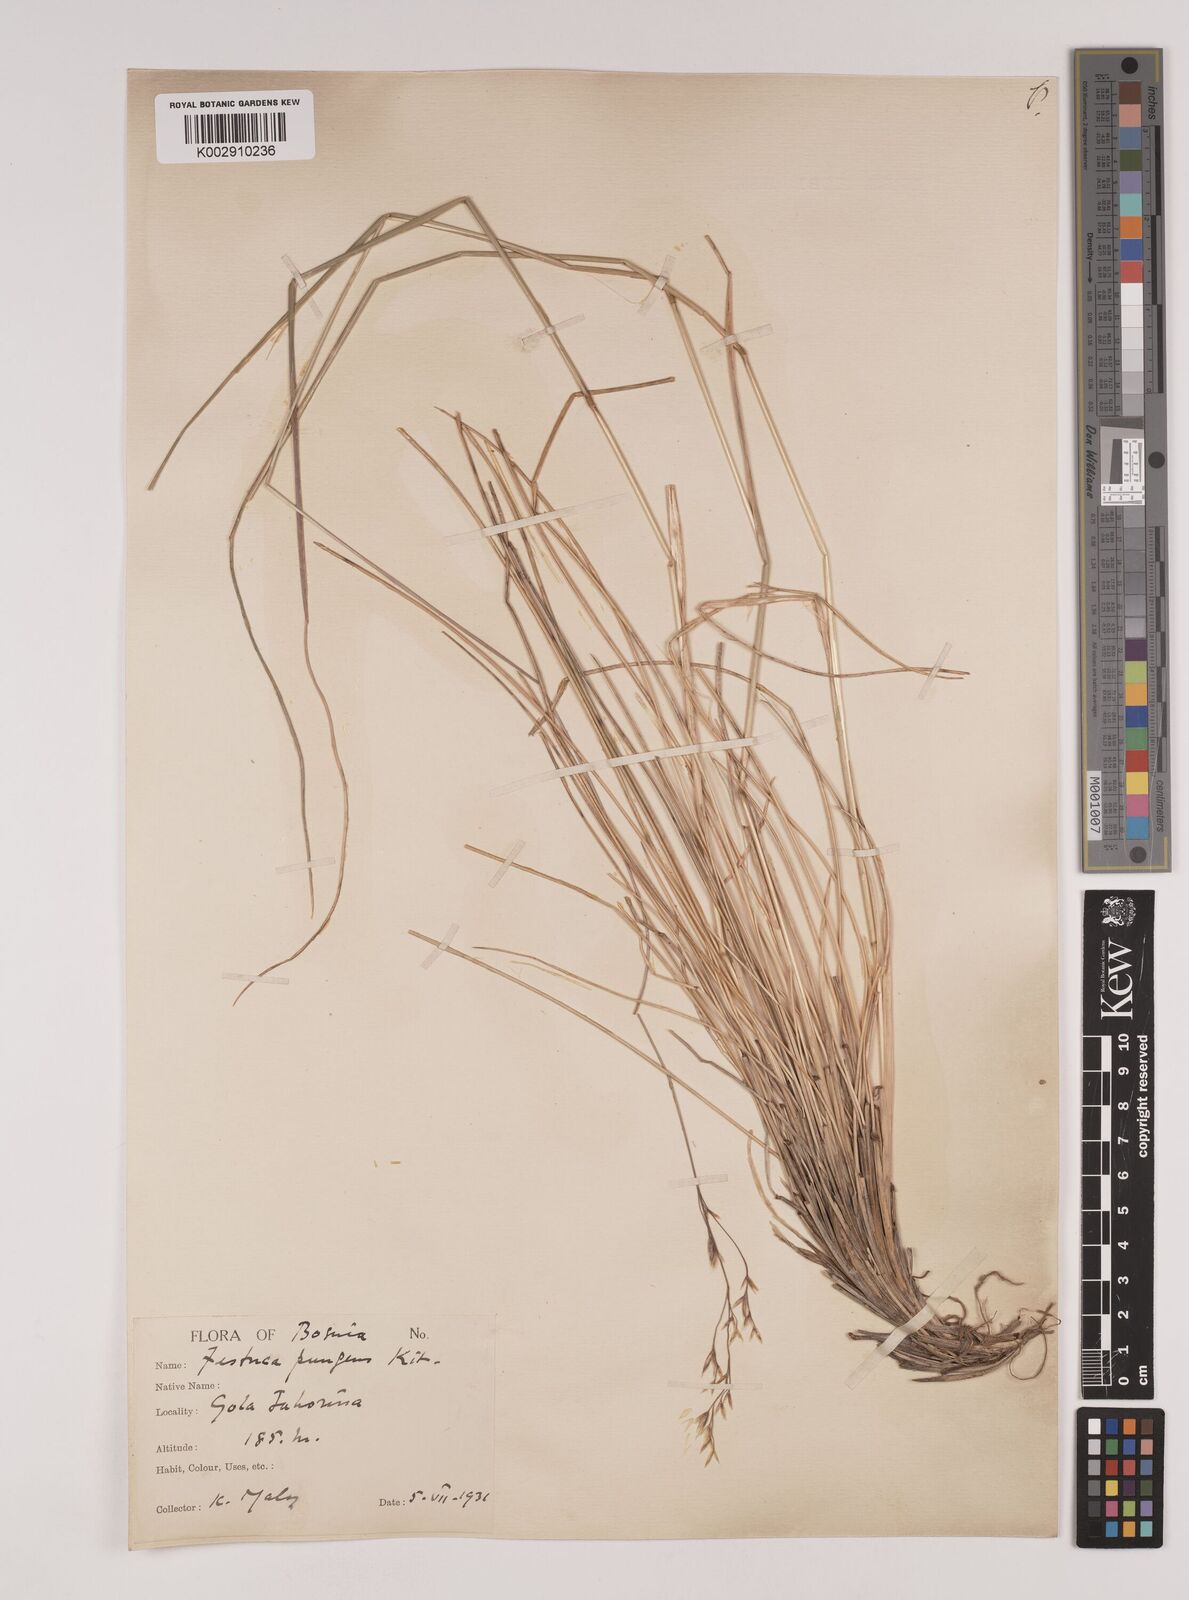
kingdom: Plantae
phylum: Tracheophyta
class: Liliopsida
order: Poales
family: Poaceae
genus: Festuca
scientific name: Festuca bosniaca
